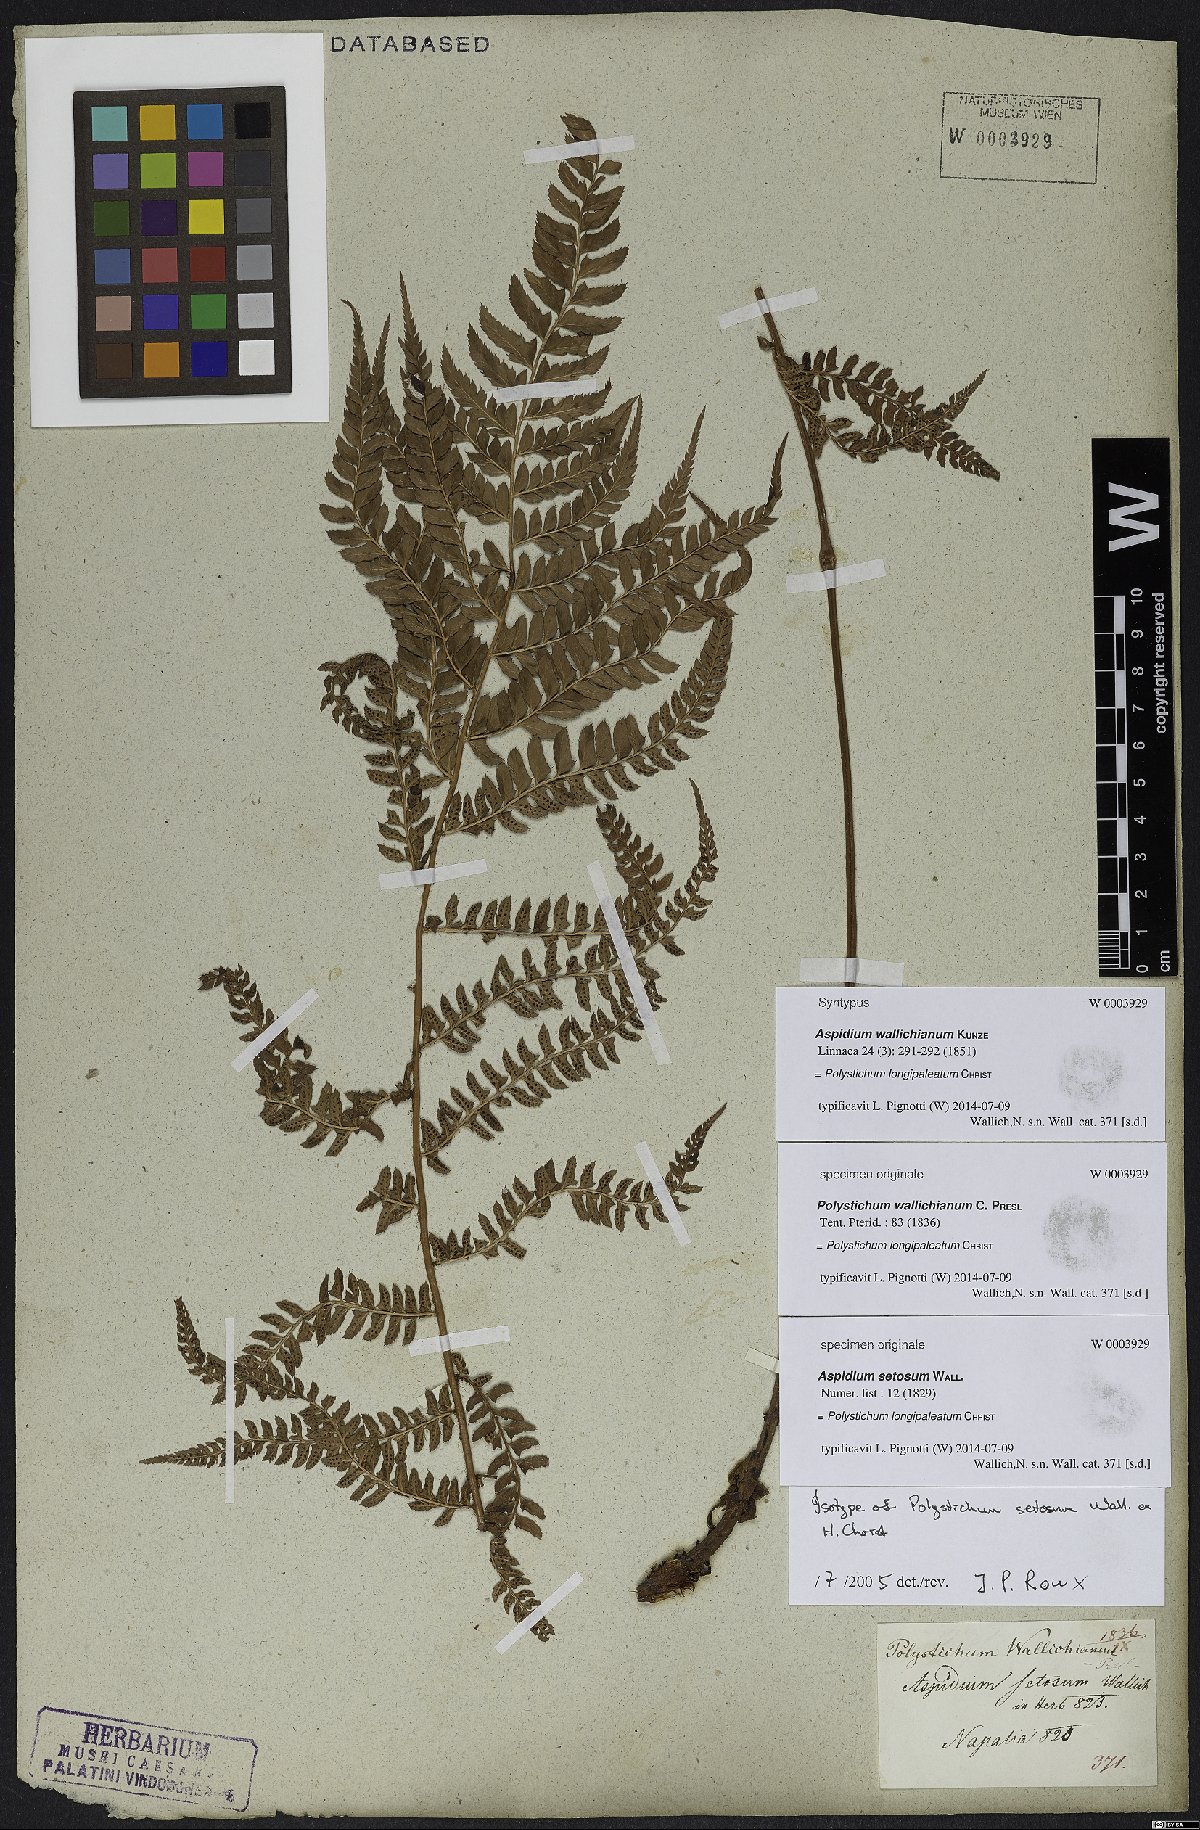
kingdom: Plantae
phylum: Tracheophyta
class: Polypodiopsida
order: Polypodiales
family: Dryopteridaceae
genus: Polystichum
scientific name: Polystichum longipaleatum
